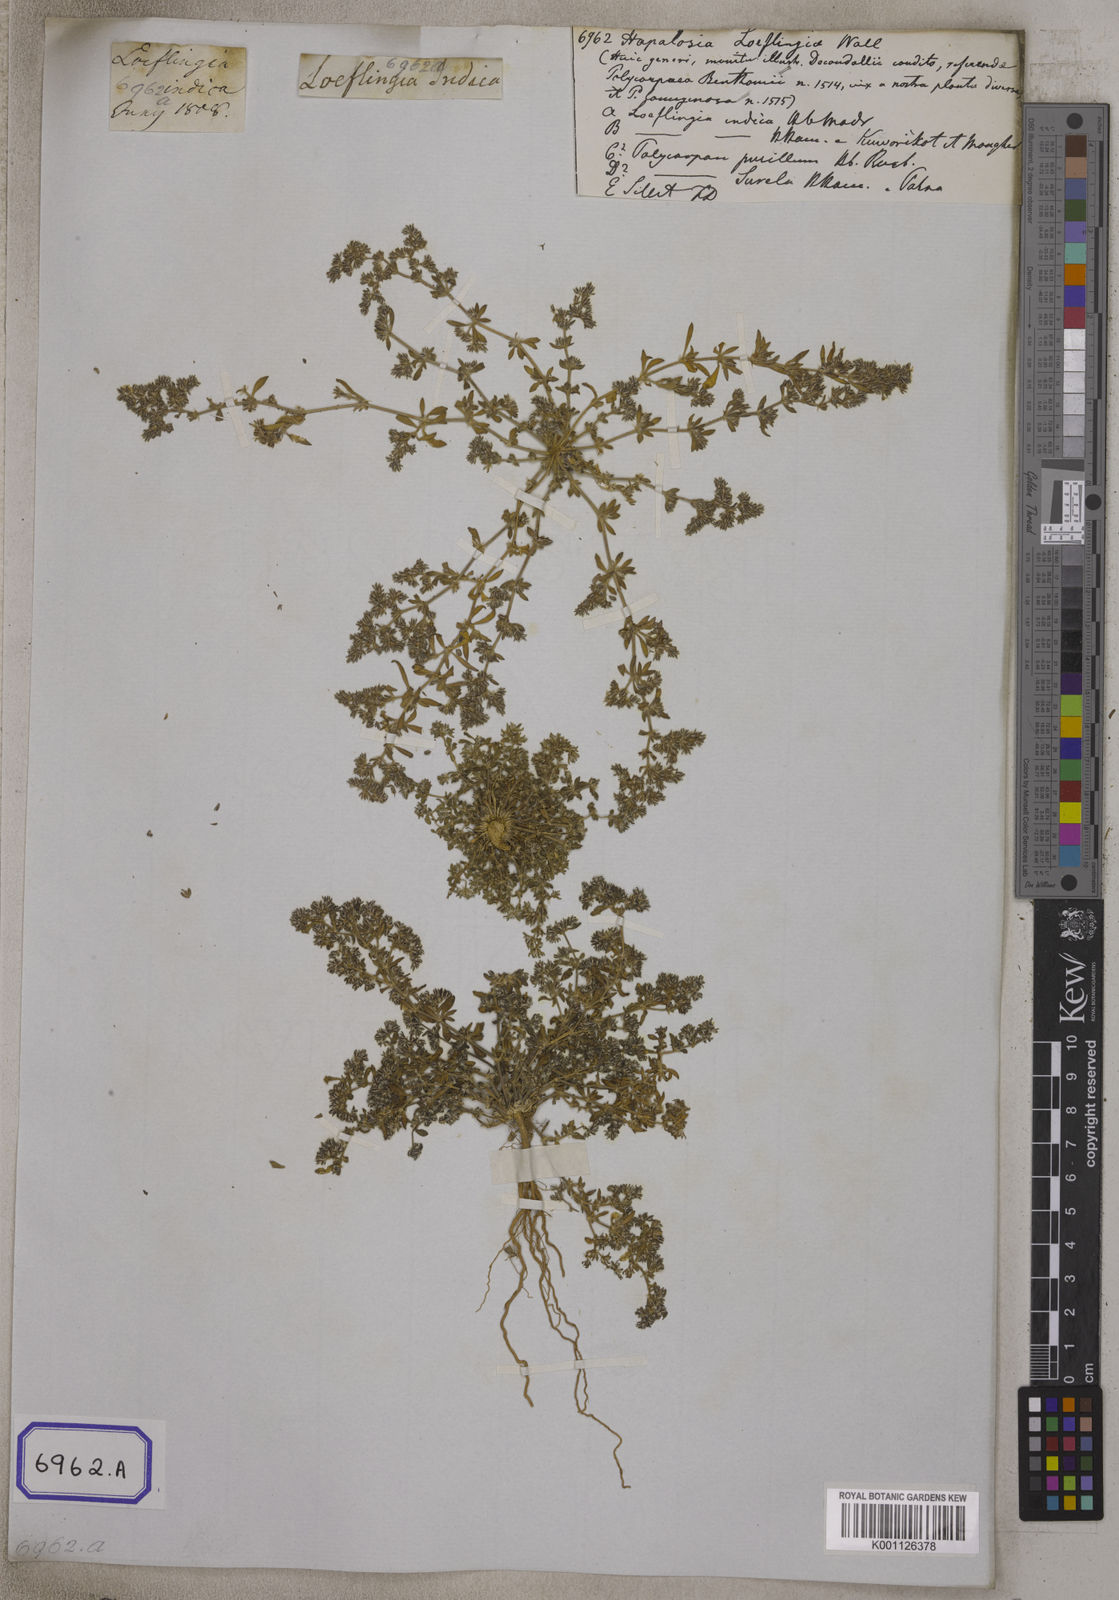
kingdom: Plantae
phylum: Tracheophyta
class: Magnoliopsida
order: Caryophyllales
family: Caryophyllaceae
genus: Hapalosia
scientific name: Hapalosia
